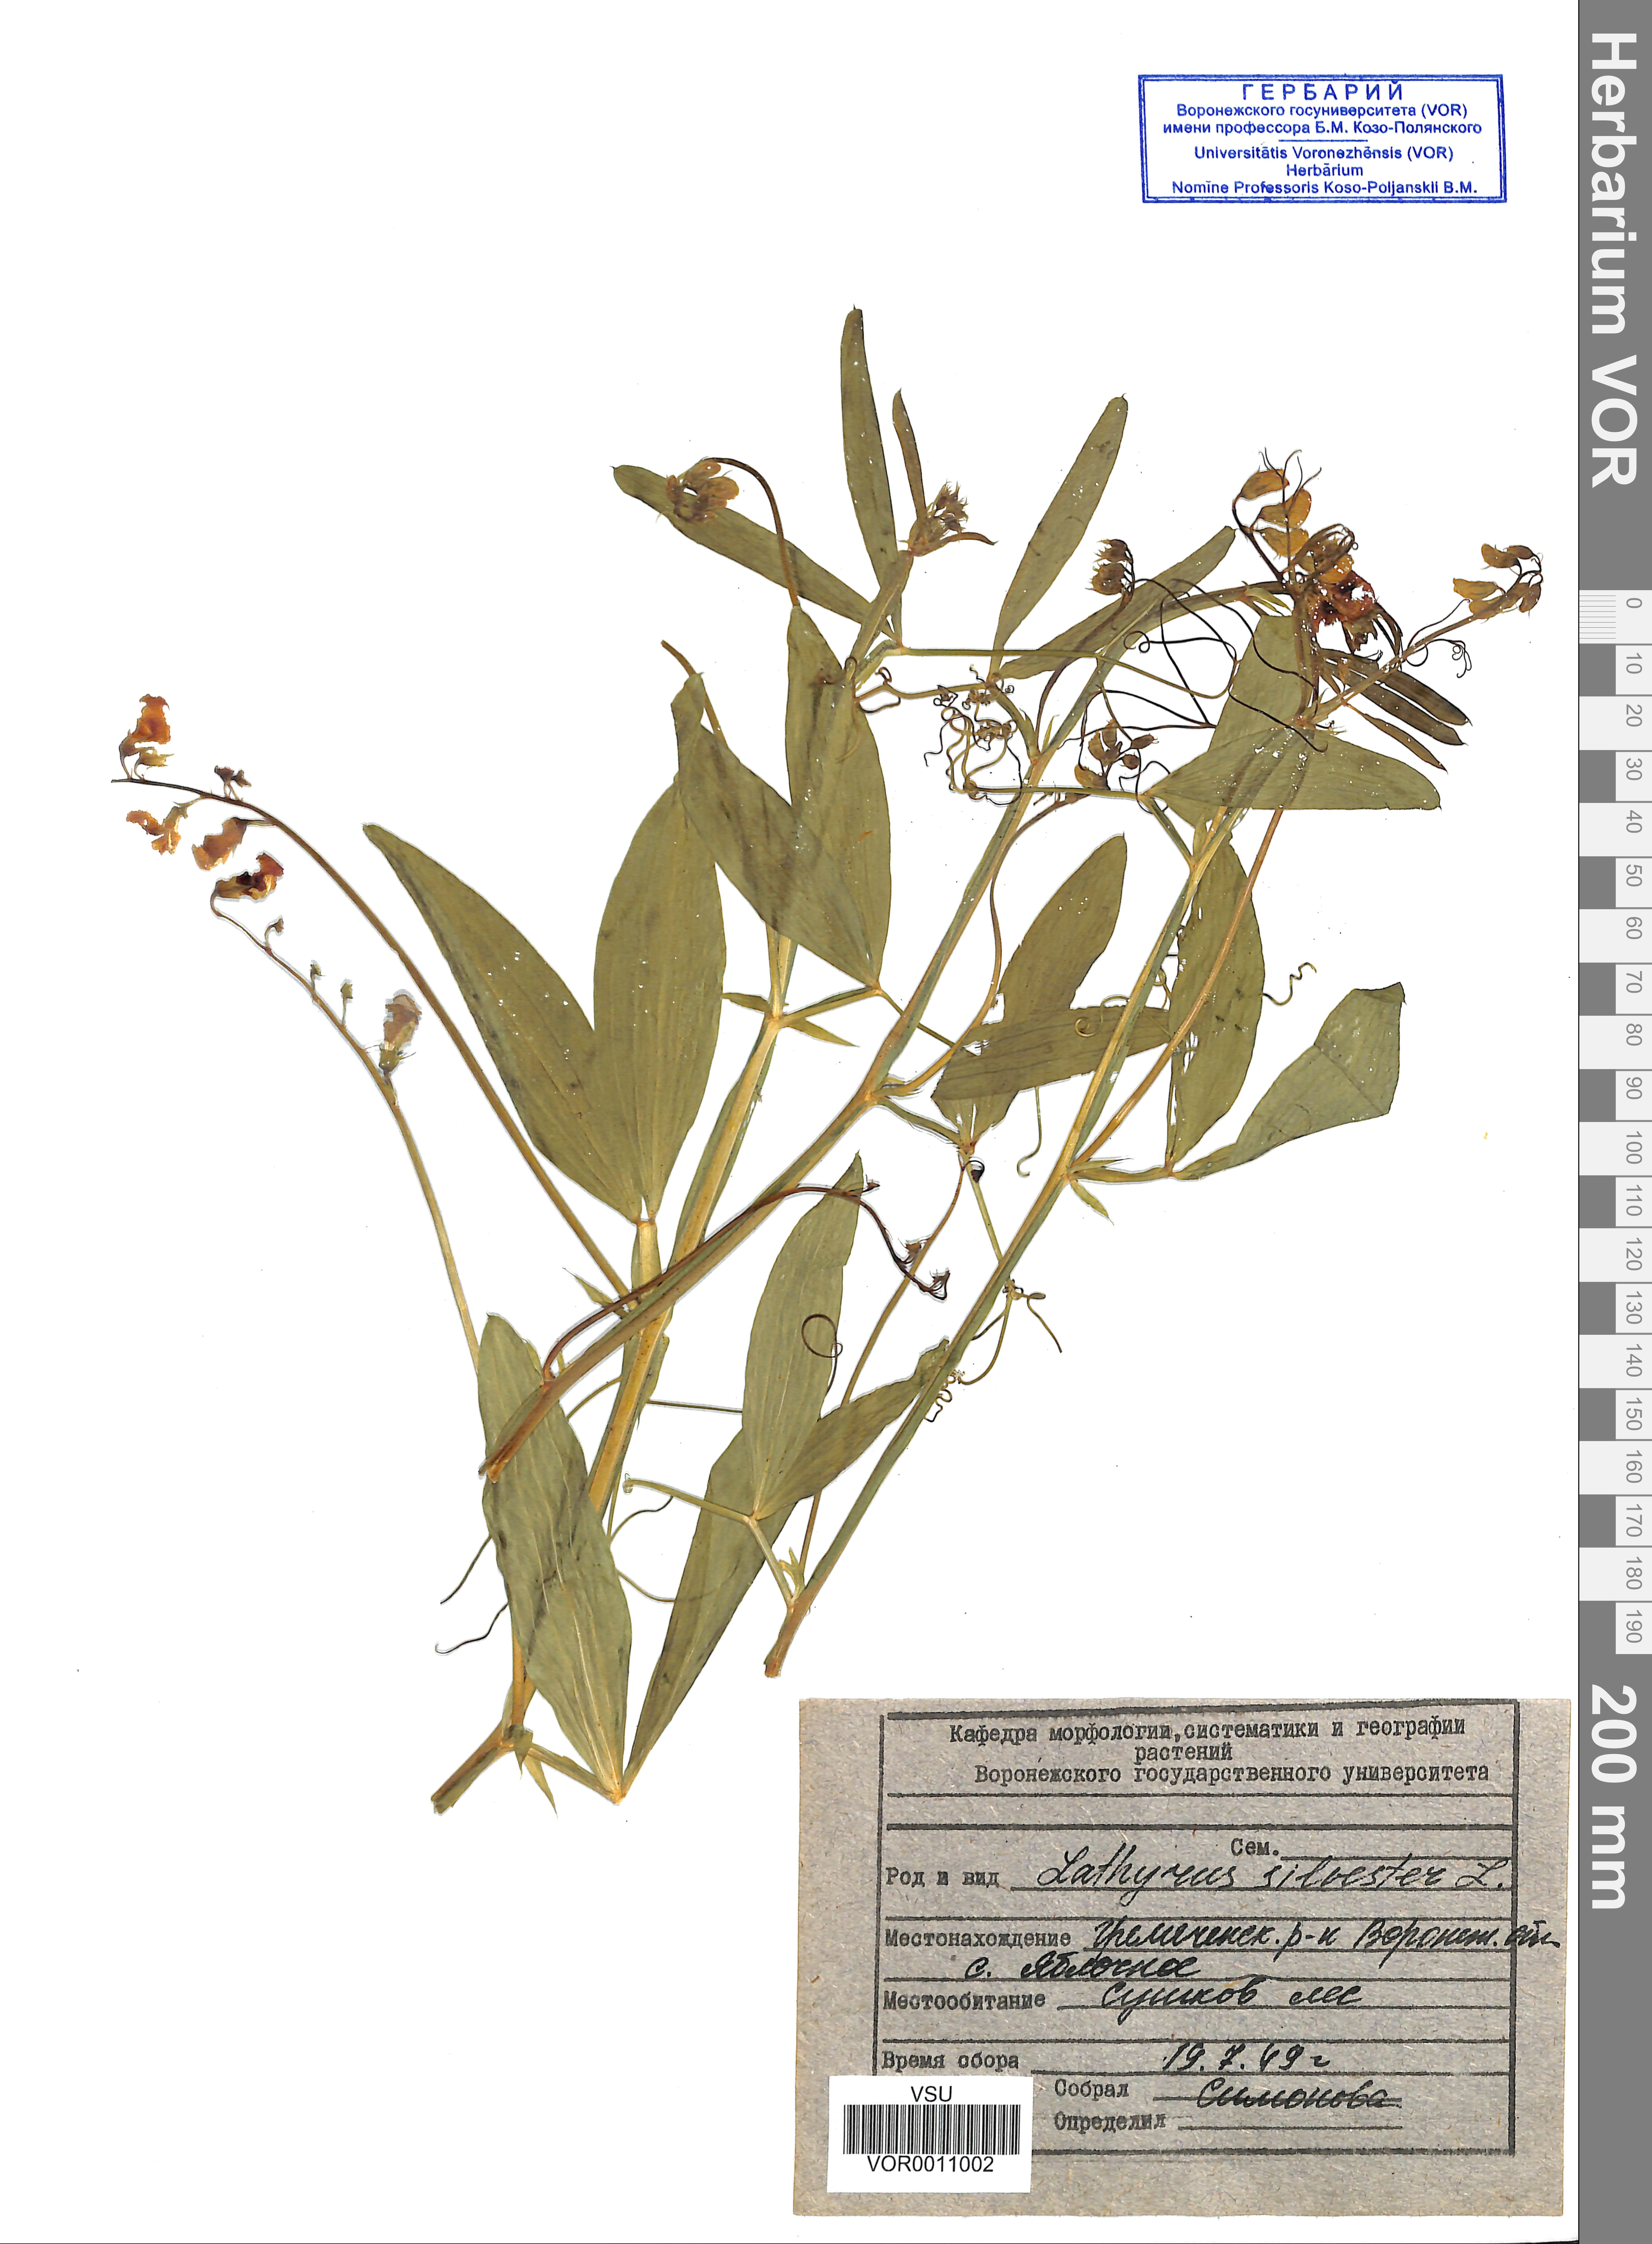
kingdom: Plantae
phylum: Tracheophyta
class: Magnoliopsida
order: Fabales
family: Fabaceae
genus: Lathyrus
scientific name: Lathyrus sylvestris
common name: Flat pea
